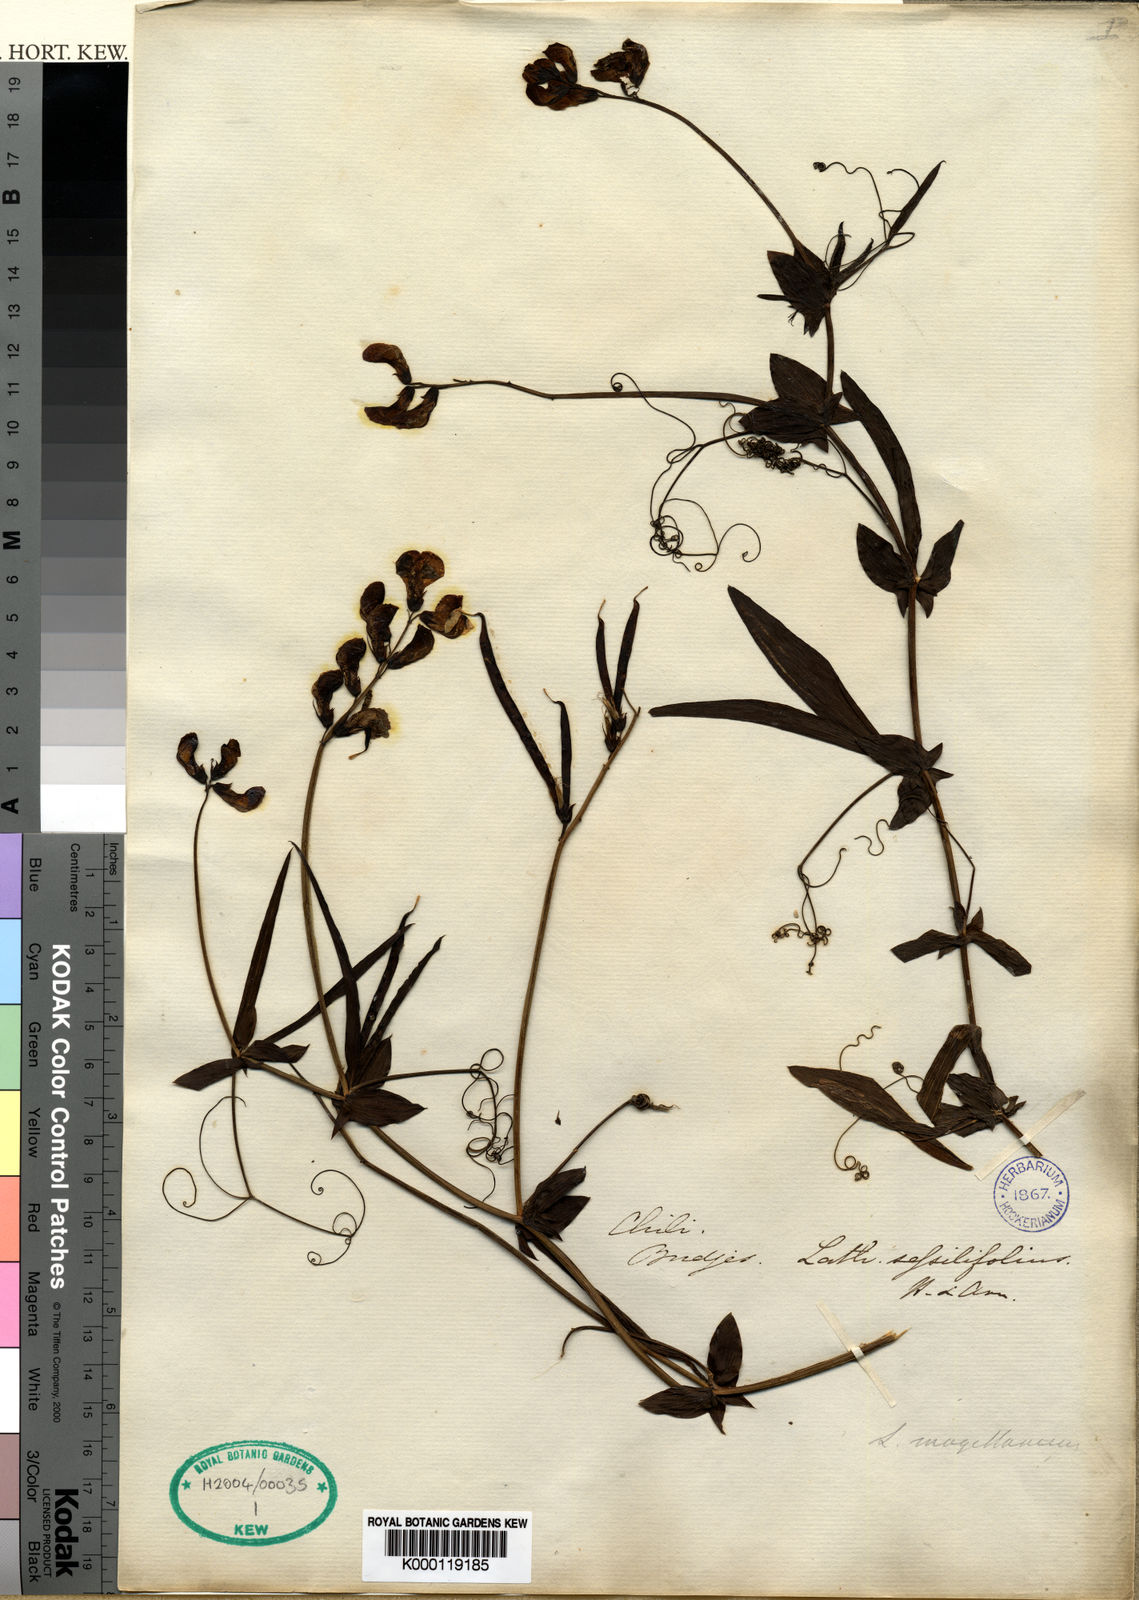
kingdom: Plantae
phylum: Tracheophyta
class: Magnoliopsida
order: Fabales
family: Fabaceae
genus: Lathyrus
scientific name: Lathyrus
